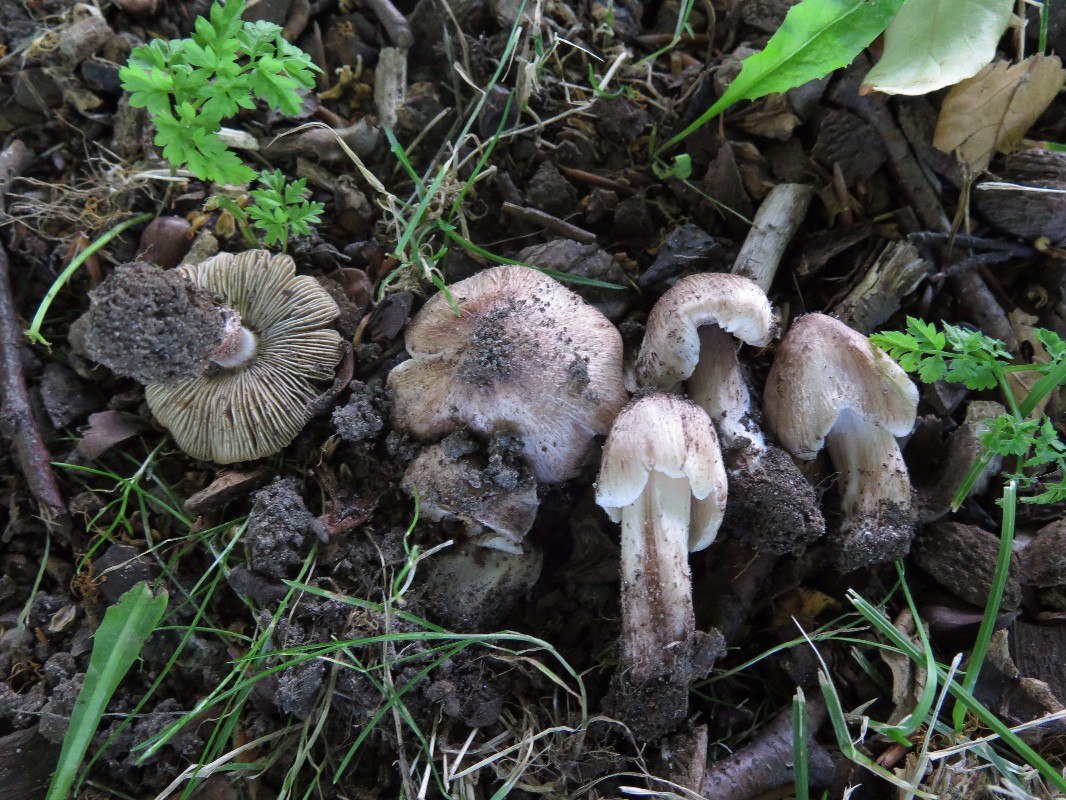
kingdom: Fungi
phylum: Basidiomycota
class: Agaricomycetes
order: Agaricales
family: Inocybaceae
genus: Inosperma
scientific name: Inosperma adaequatum
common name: vinrød trævlhat
